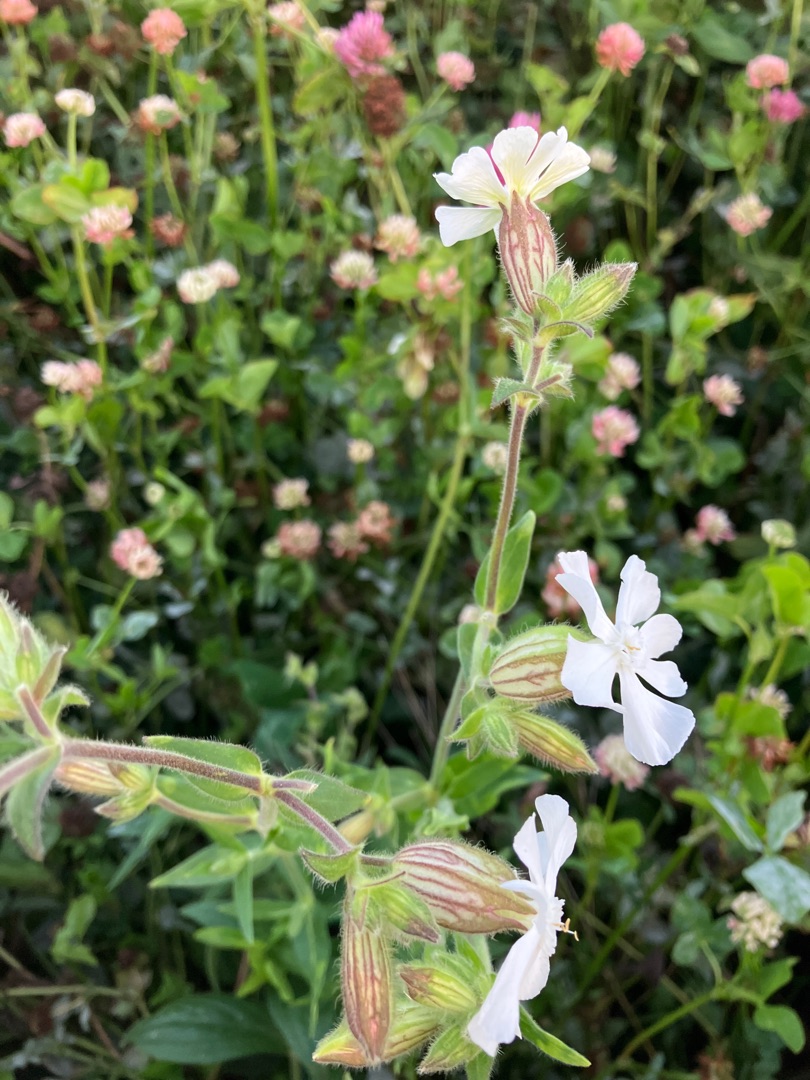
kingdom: Plantae
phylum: Tracheophyta
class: Magnoliopsida
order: Caryophyllales
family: Caryophyllaceae
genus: Silene
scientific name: Silene latifolia
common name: Aftenpragtstjerne
